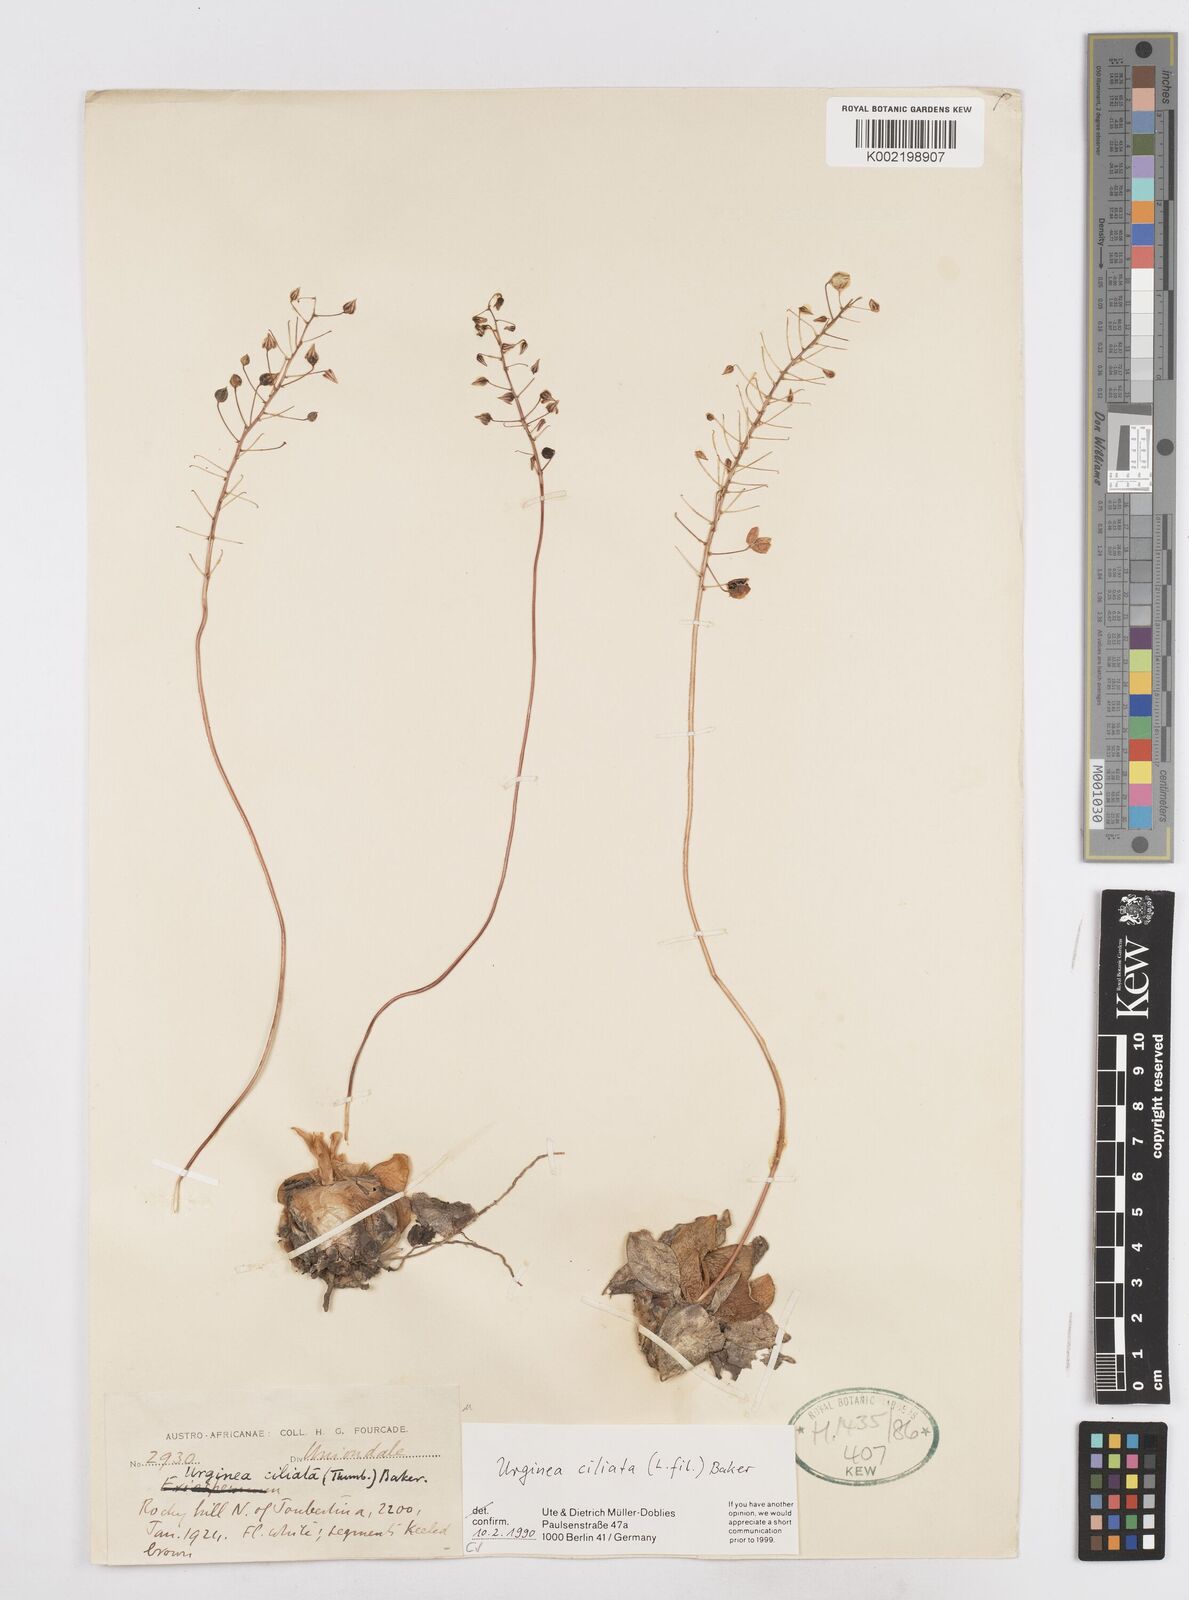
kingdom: Plantae
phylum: Tracheophyta
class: Liliopsida
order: Asparagales
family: Asparagaceae
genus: Drimia
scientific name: Drimia ciliata
